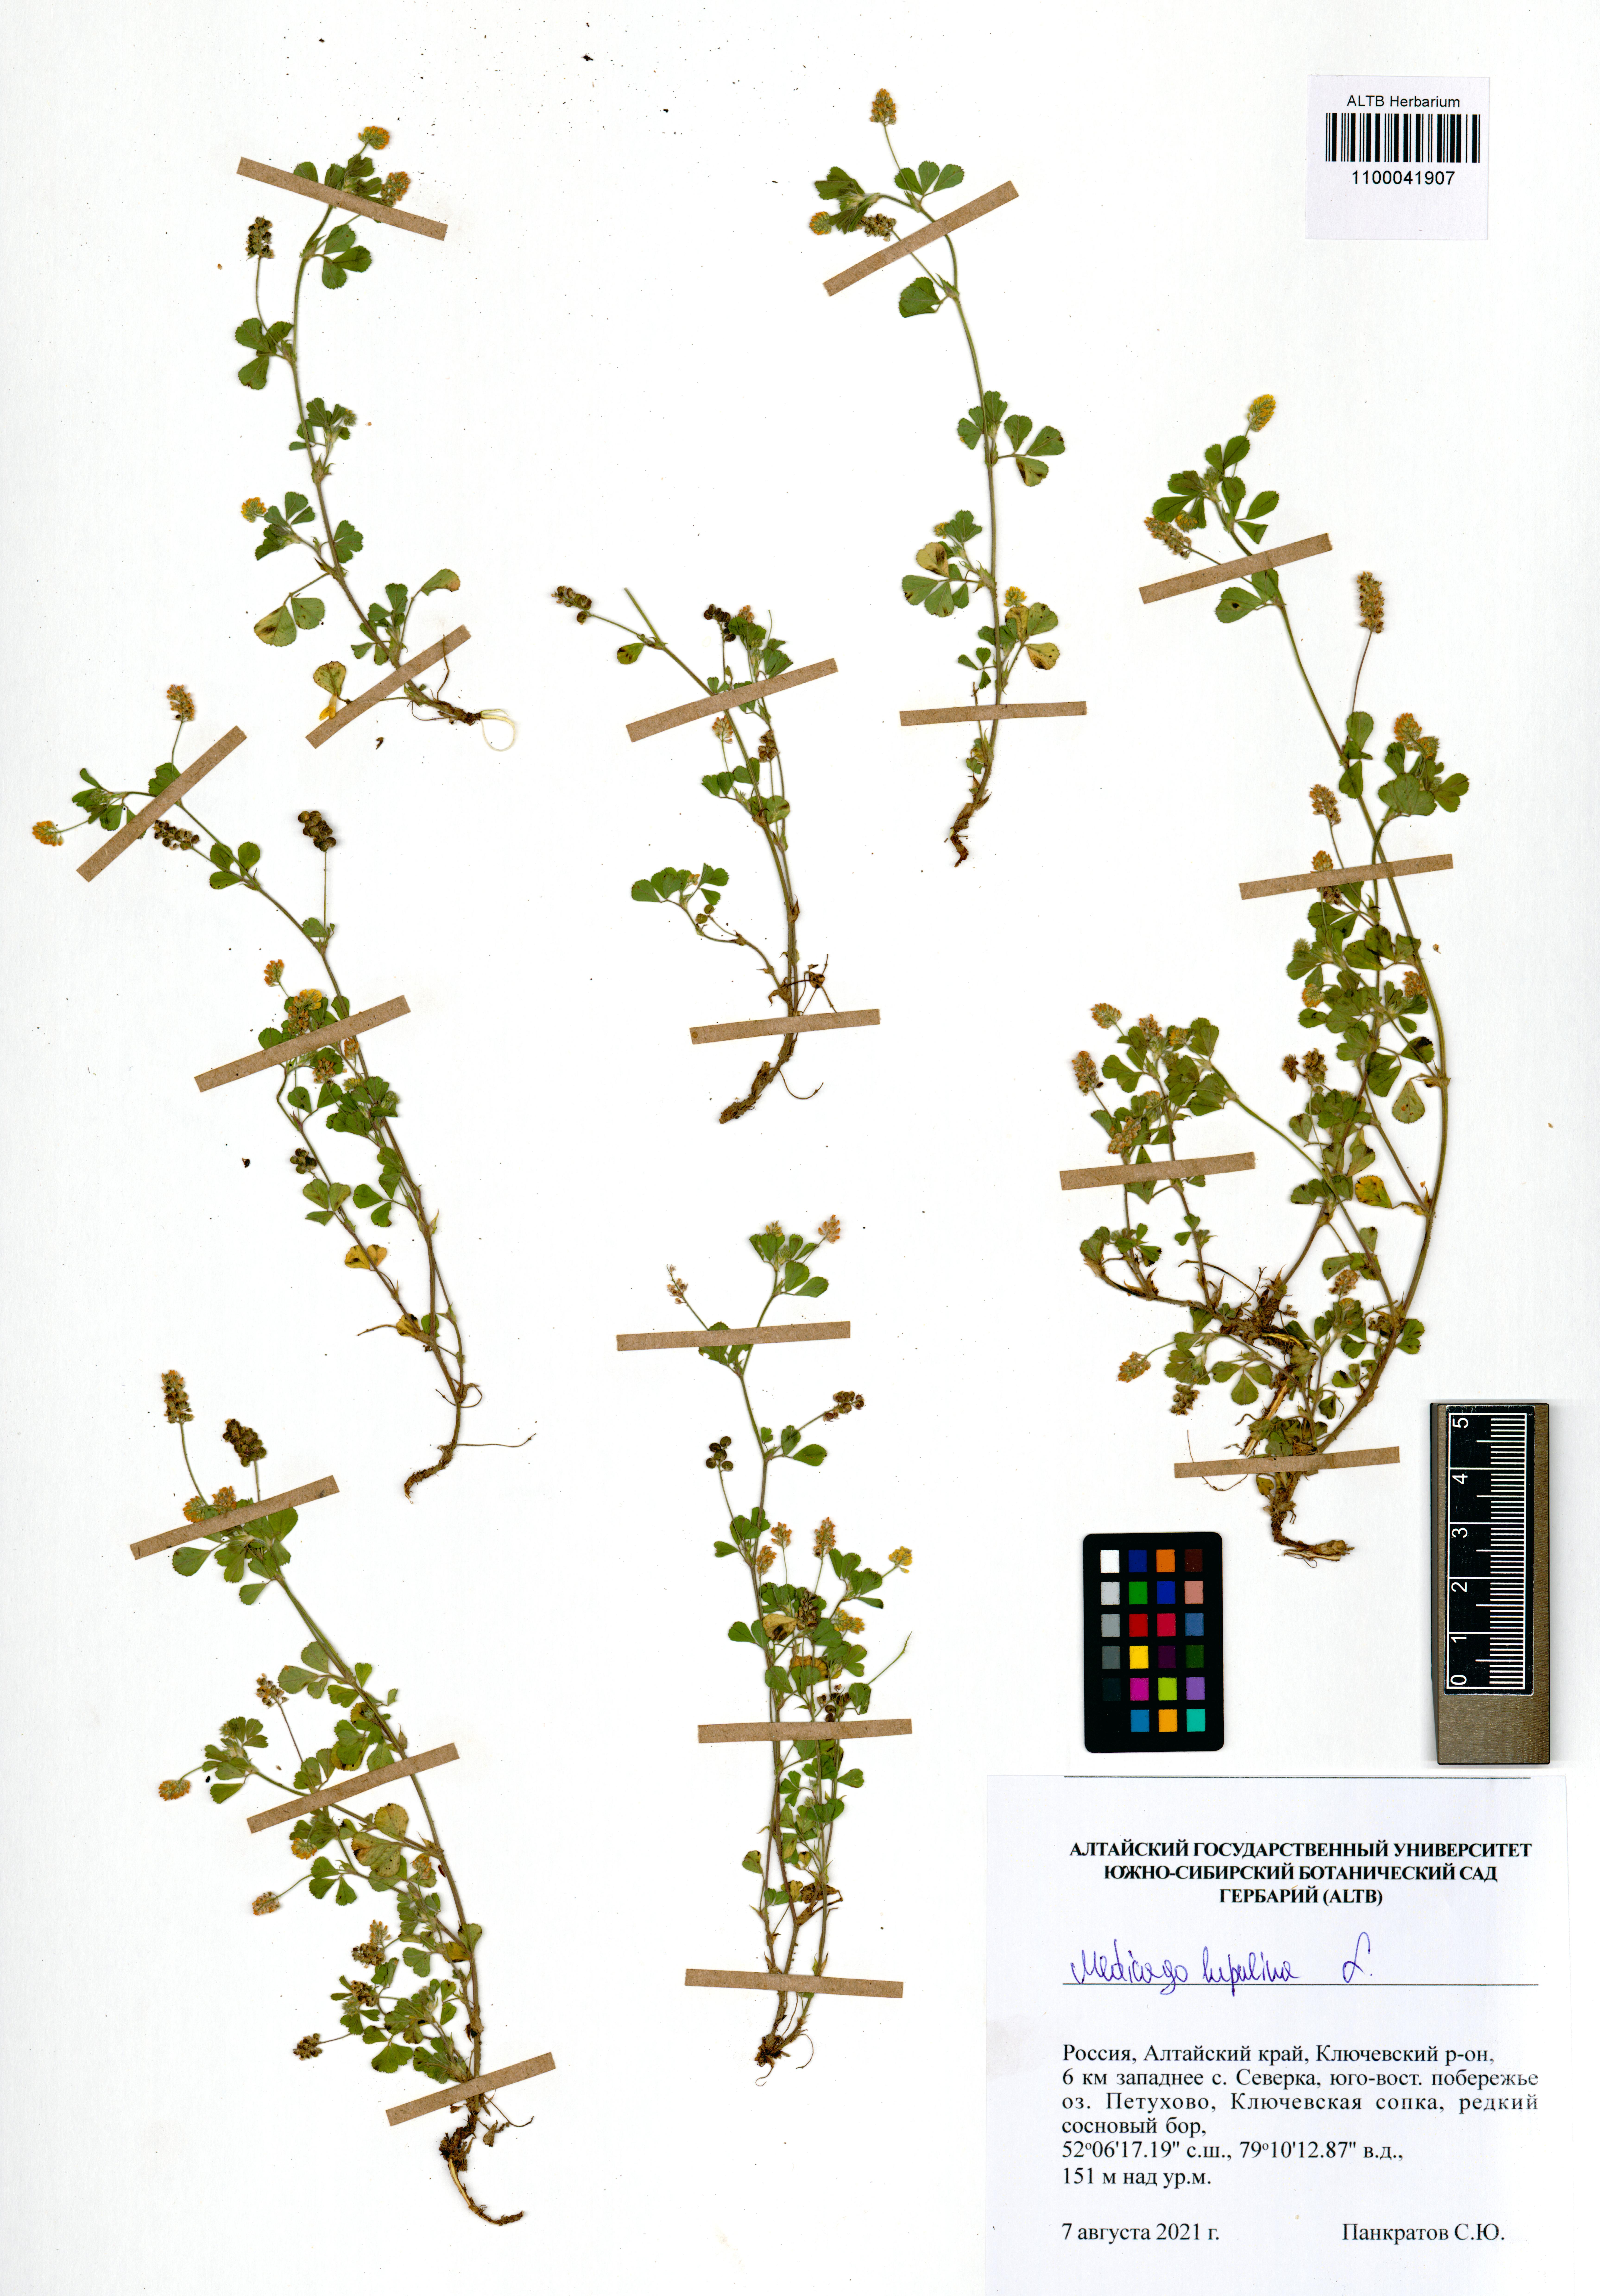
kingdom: Plantae
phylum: Tracheophyta
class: Magnoliopsida
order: Fabales
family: Fabaceae
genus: Medicago
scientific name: Medicago lupulina
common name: Black medick
